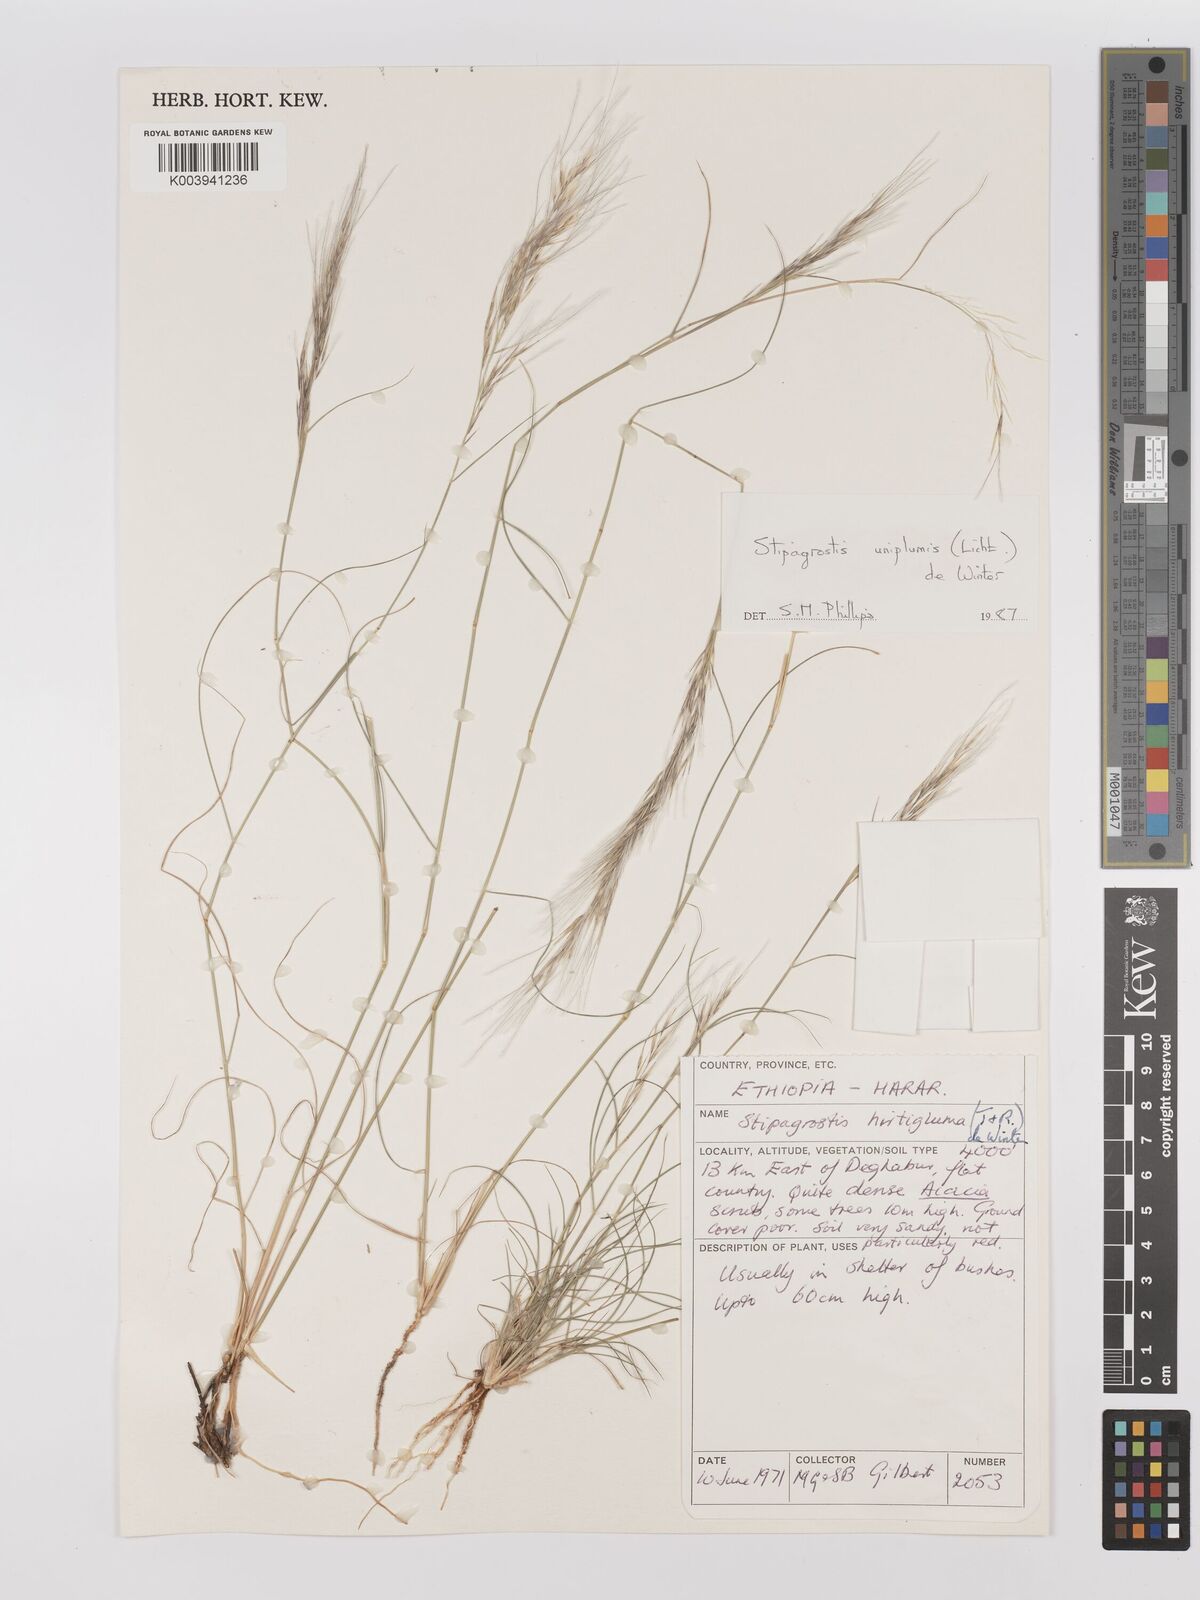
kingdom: Plantae
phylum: Tracheophyta
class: Liliopsida
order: Poales
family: Poaceae
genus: Stipagrostis
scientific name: Stipagrostis uniplumis
